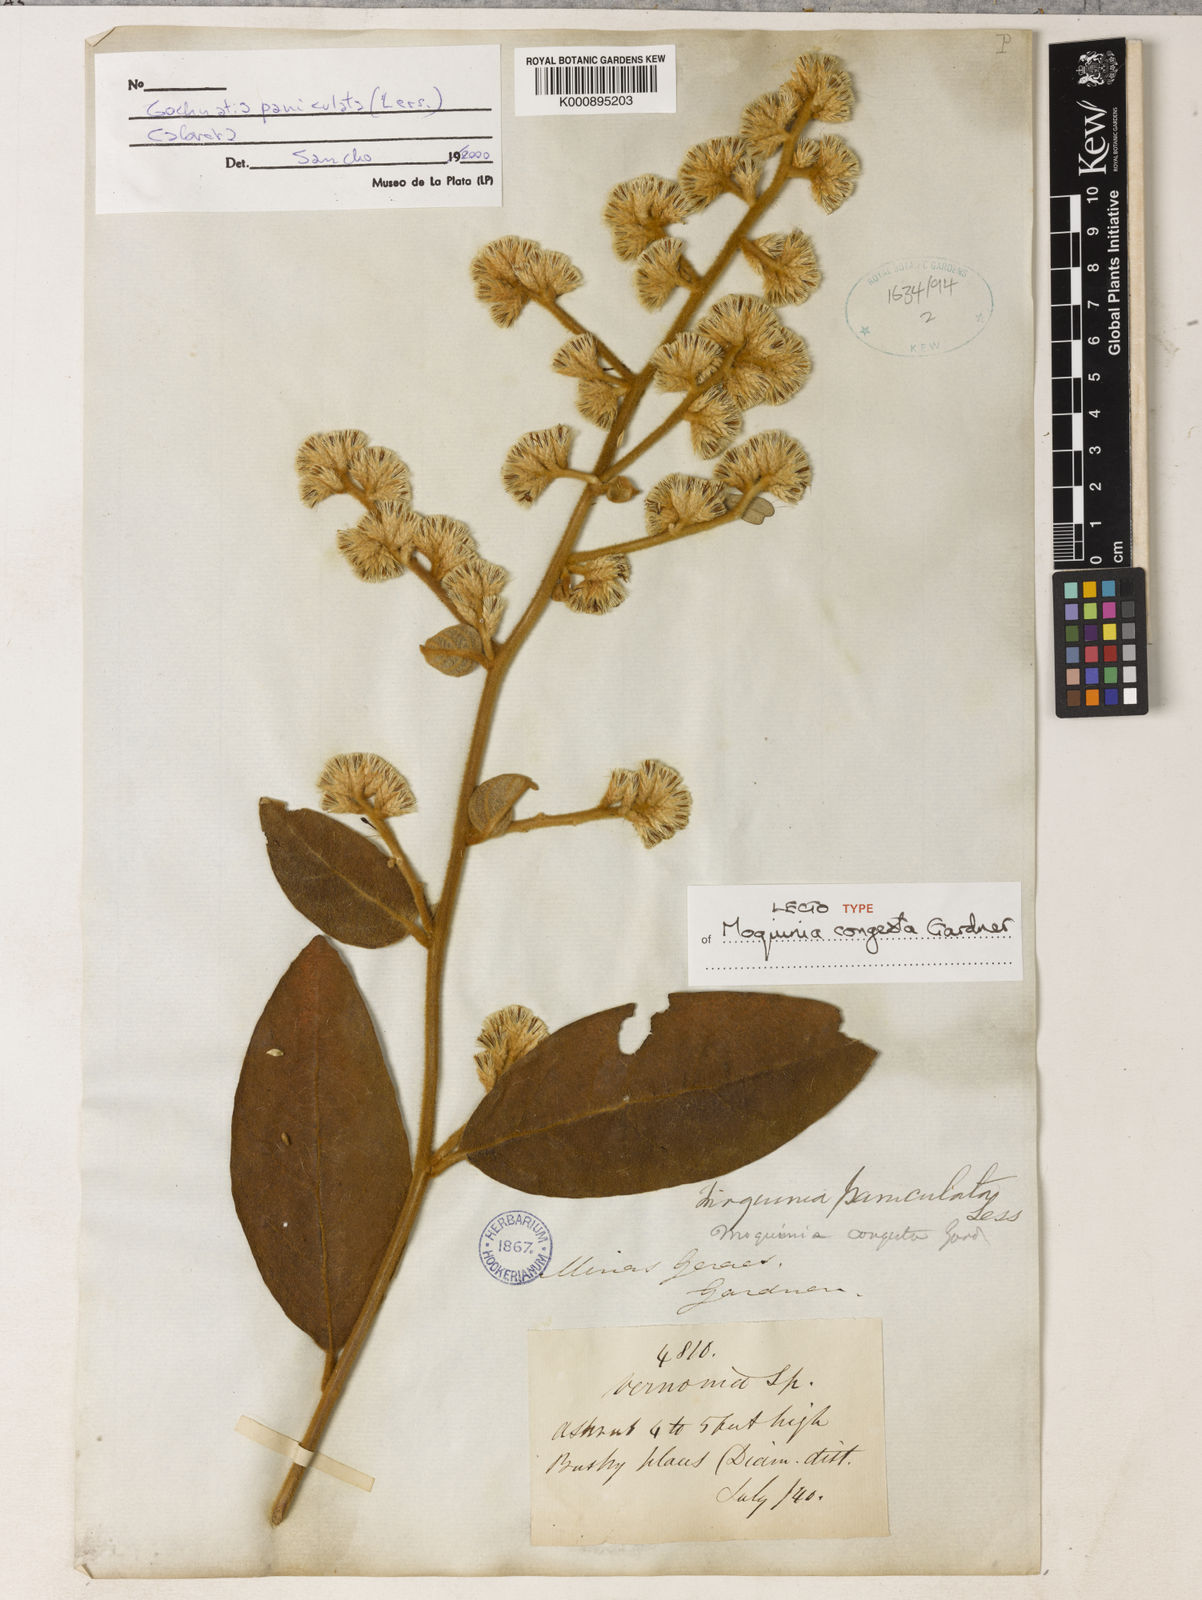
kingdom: Plantae
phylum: Tracheophyta
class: Magnoliopsida
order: Asterales
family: Asteraceae
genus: Moquiniastrum
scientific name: Moquiniastrum paniculatum
